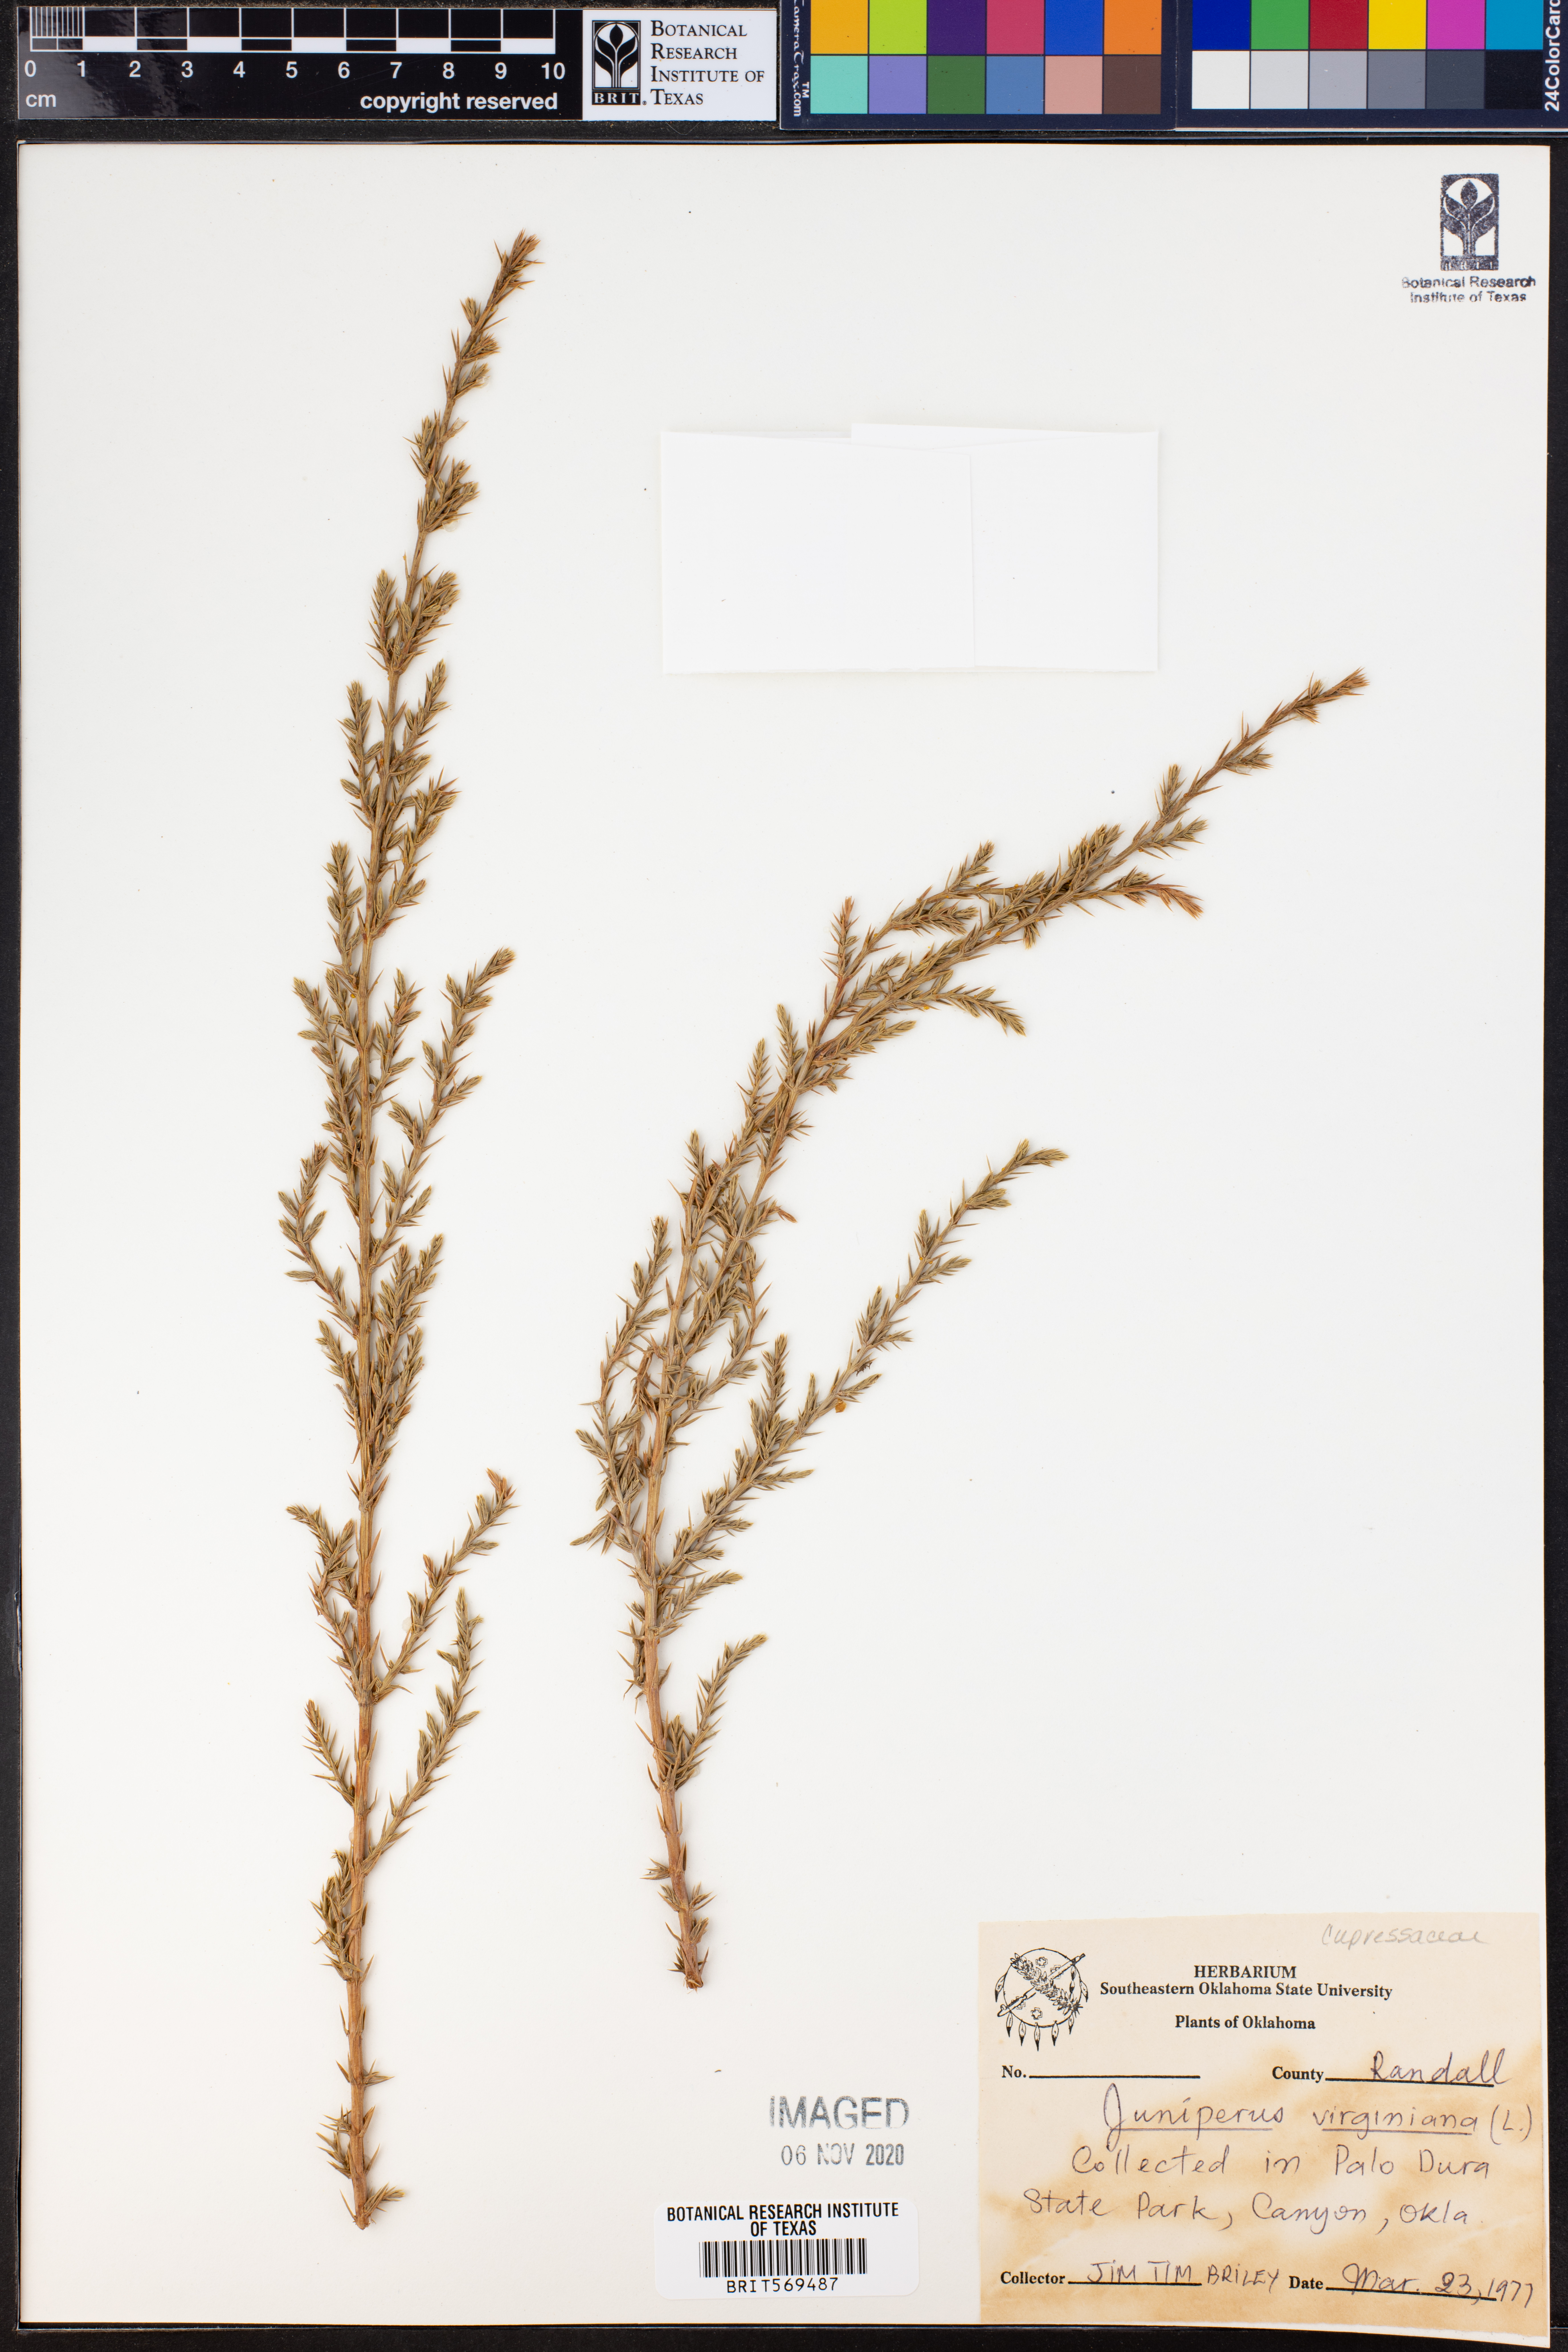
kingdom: Plantae
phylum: Tracheophyta
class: Pinopsida
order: Pinales
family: Cupressaceae
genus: Juniperus
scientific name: Juniperus virginiana
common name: Red juniper
